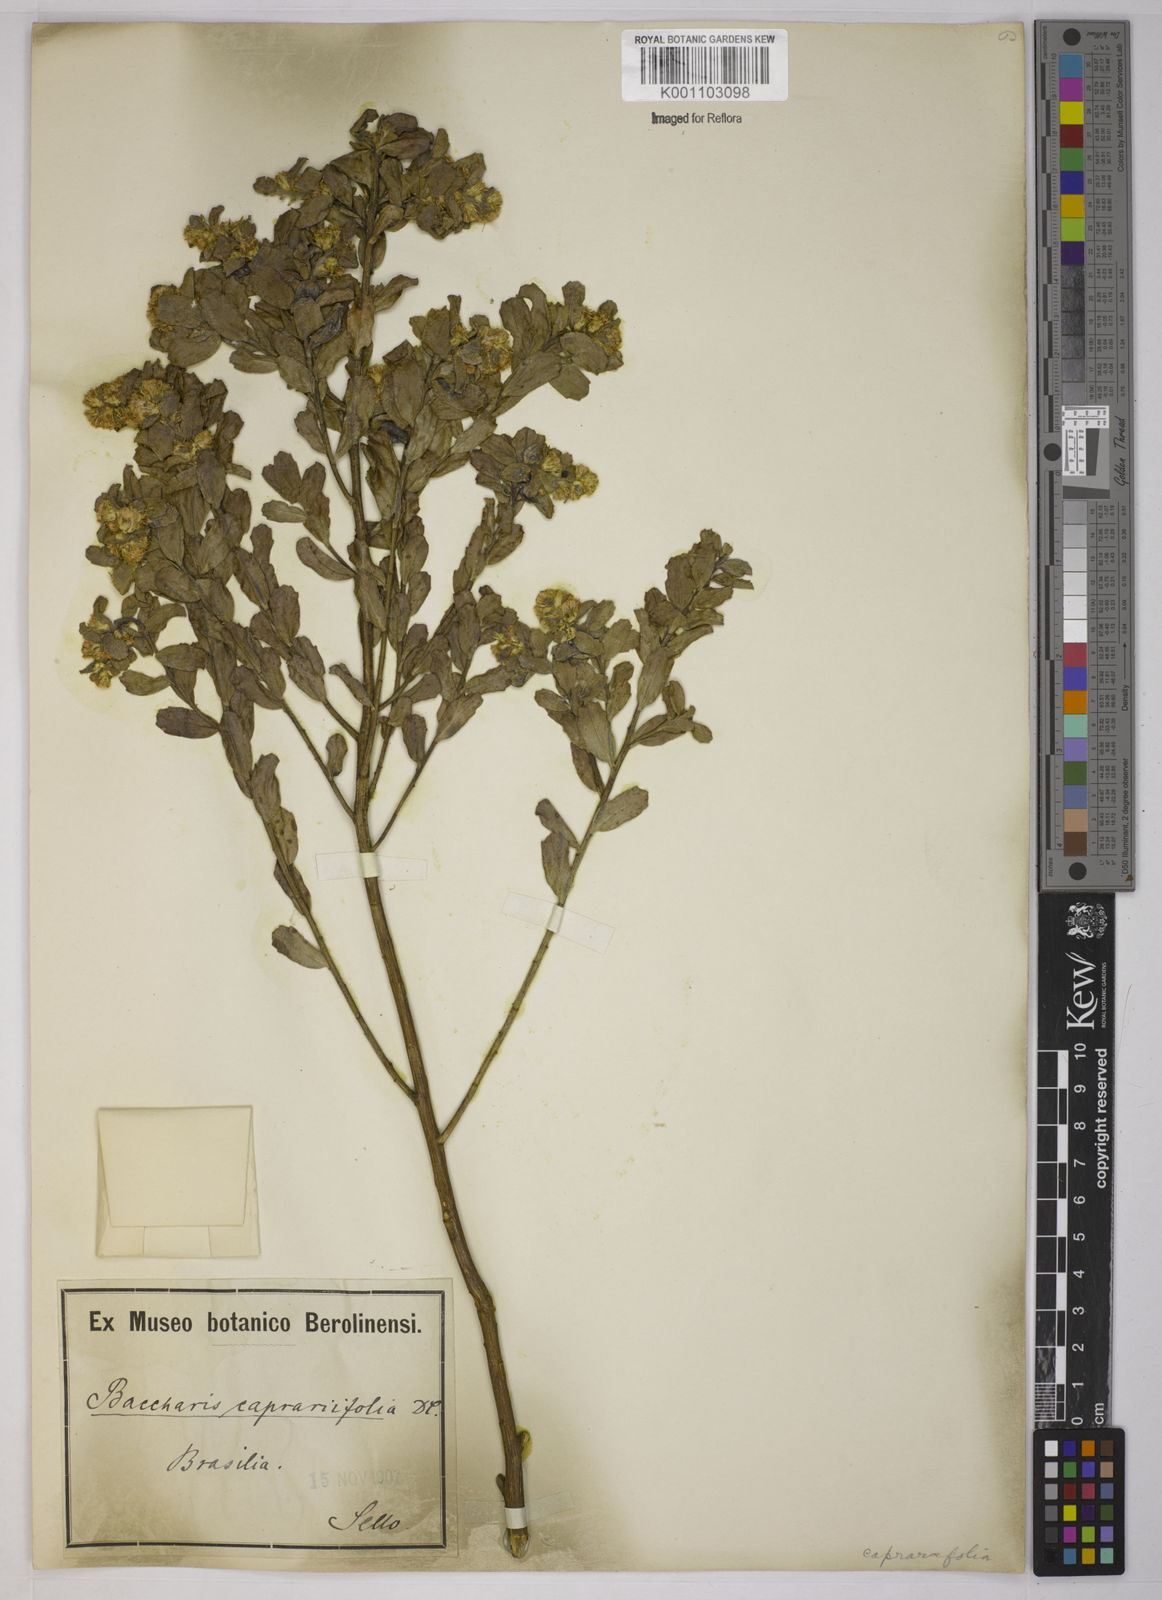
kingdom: Plantae
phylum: Tracheophyta
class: Magnoliopsida
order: Asterales
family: Asteraceae
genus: Baccharis
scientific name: Baccharis caprariifolia
